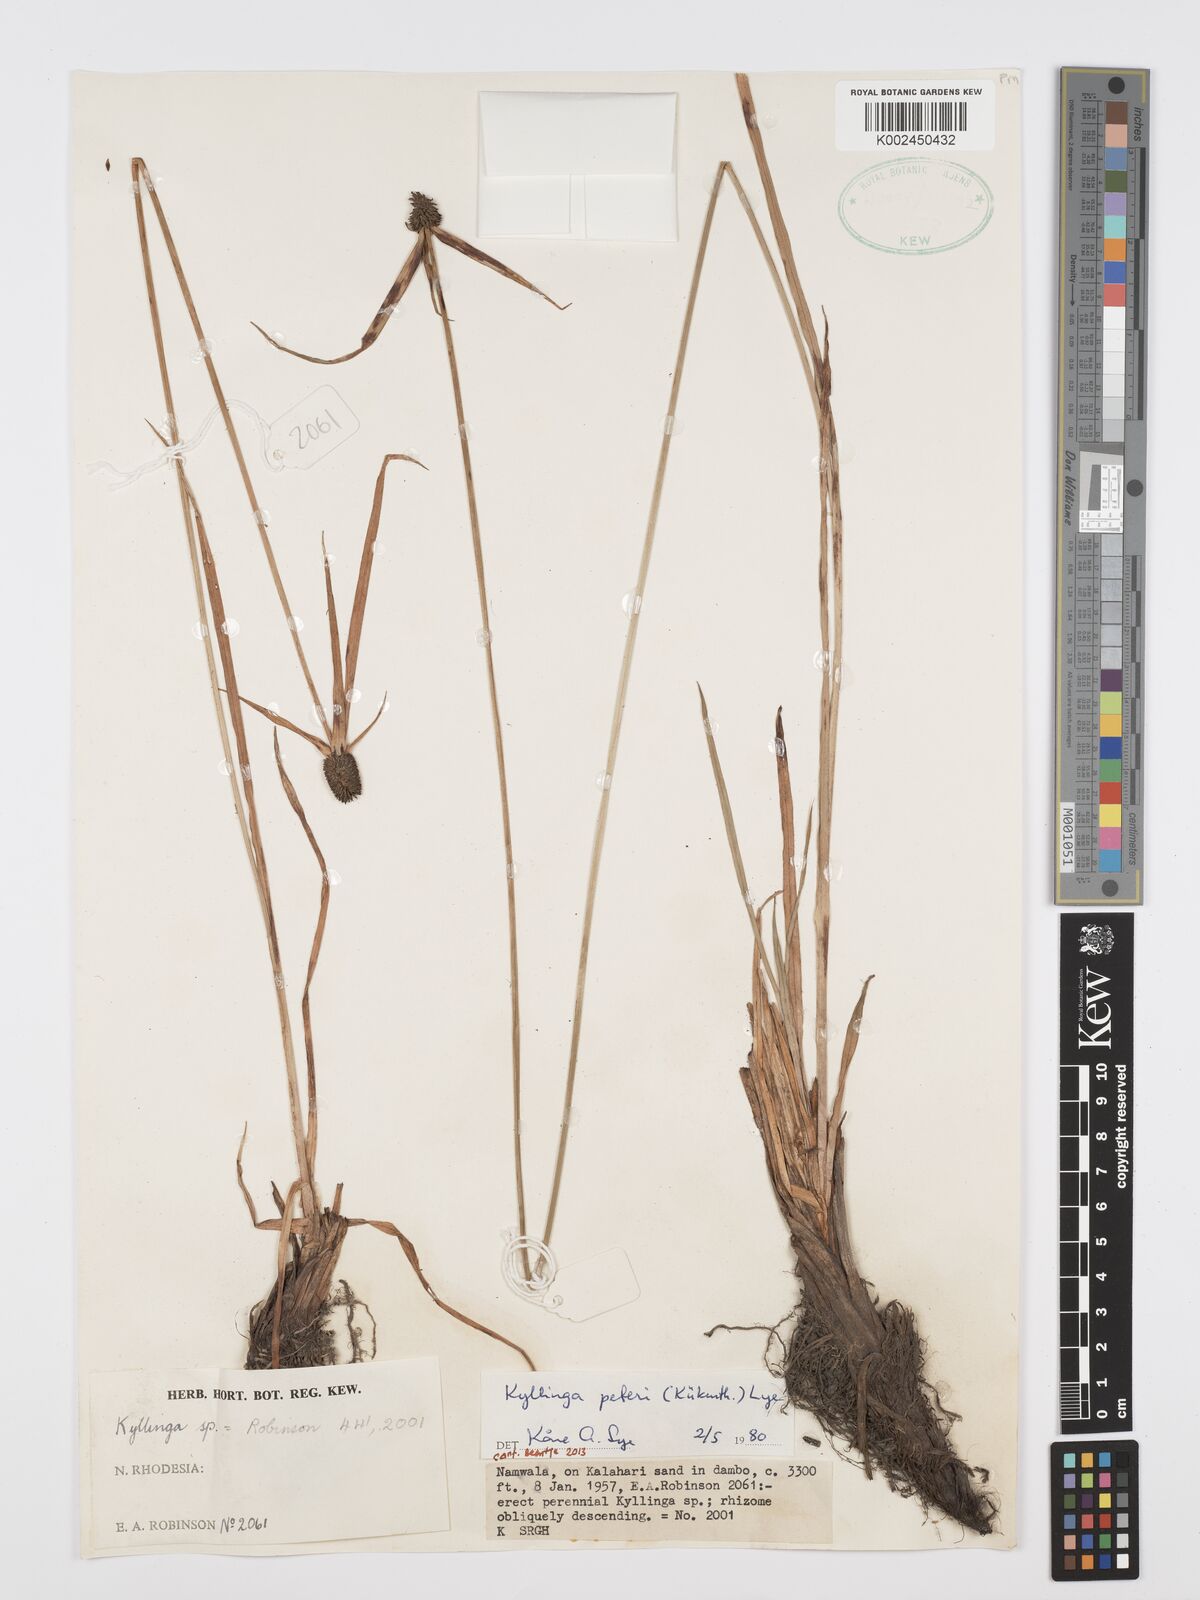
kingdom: Plantae
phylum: Tracheophyta
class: Liliopsida
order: Poales
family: Cyperaceae
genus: Cyperus
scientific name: Cyperus peteri
